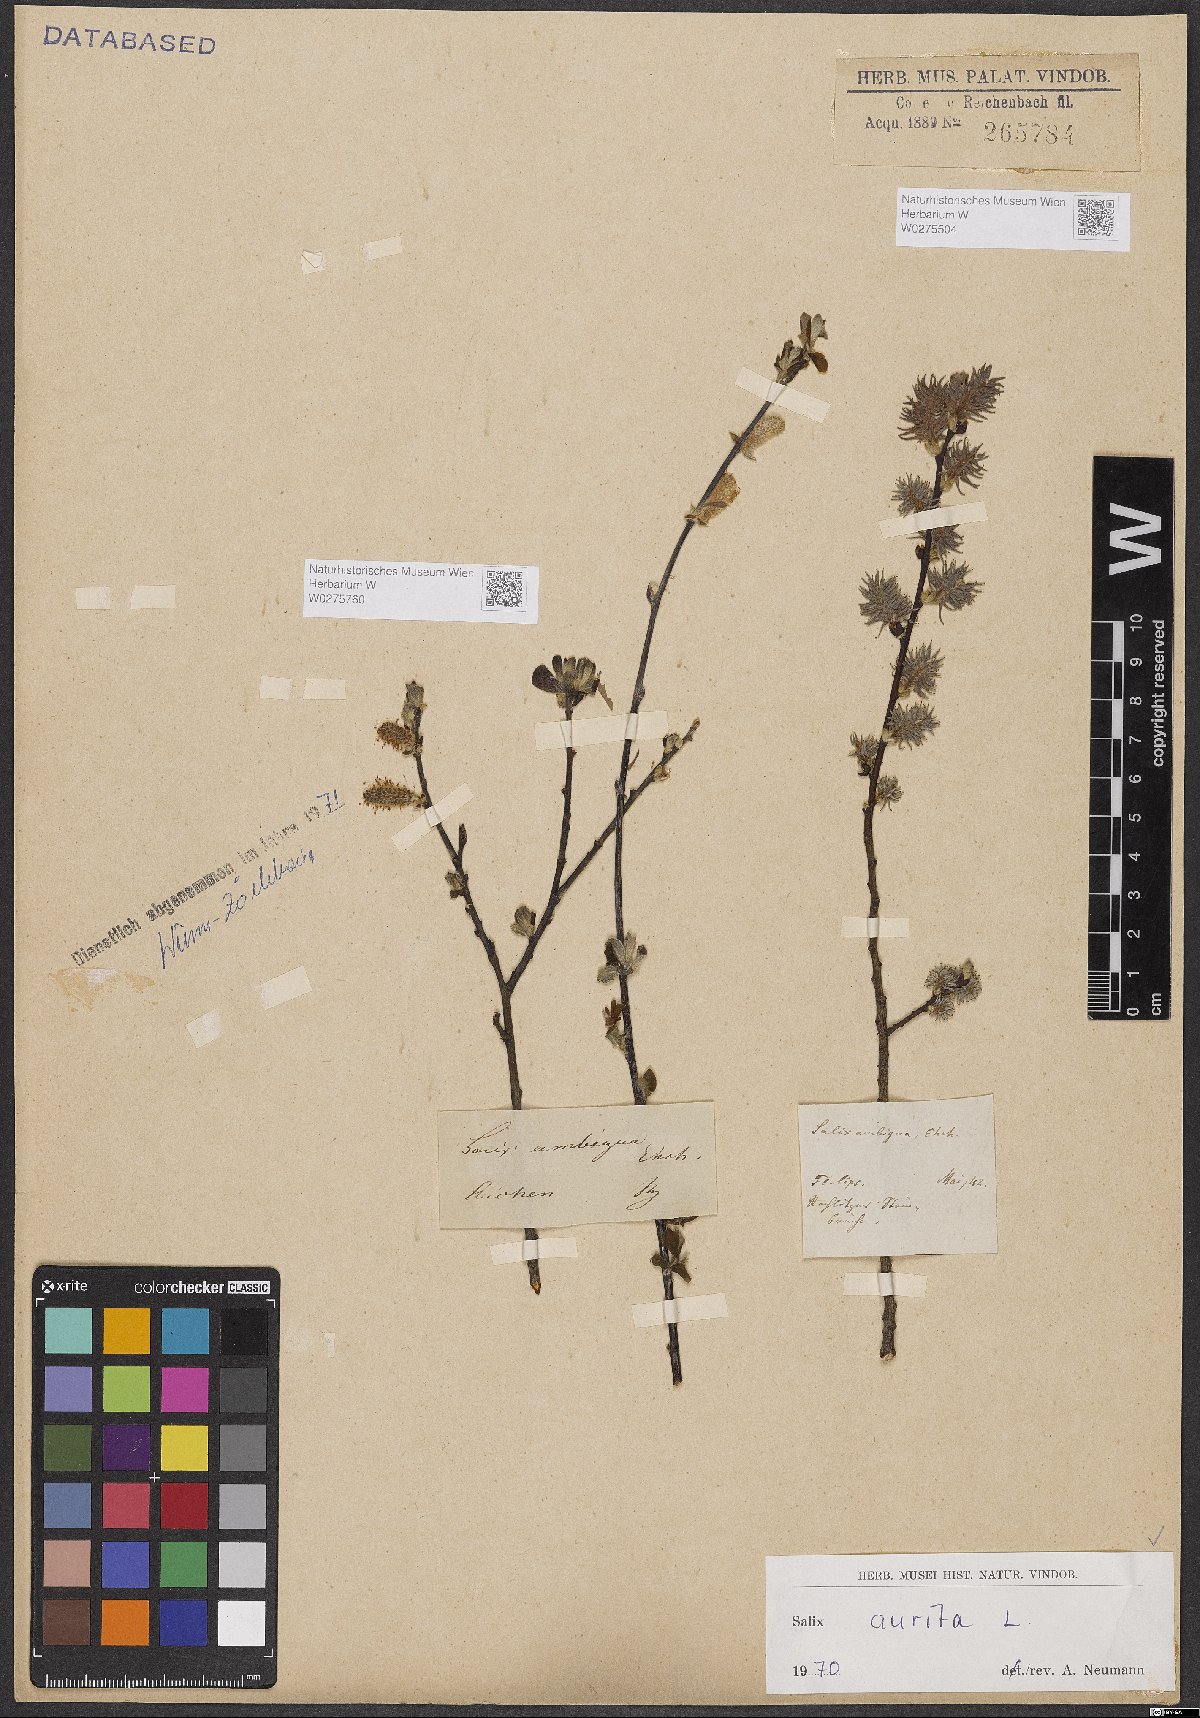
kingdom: Plantae
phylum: Tracheophyta
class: Magnoliopsida
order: Malpighiales
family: Salicaceae
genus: Salix
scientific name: Salix aurita
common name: Eared willow
